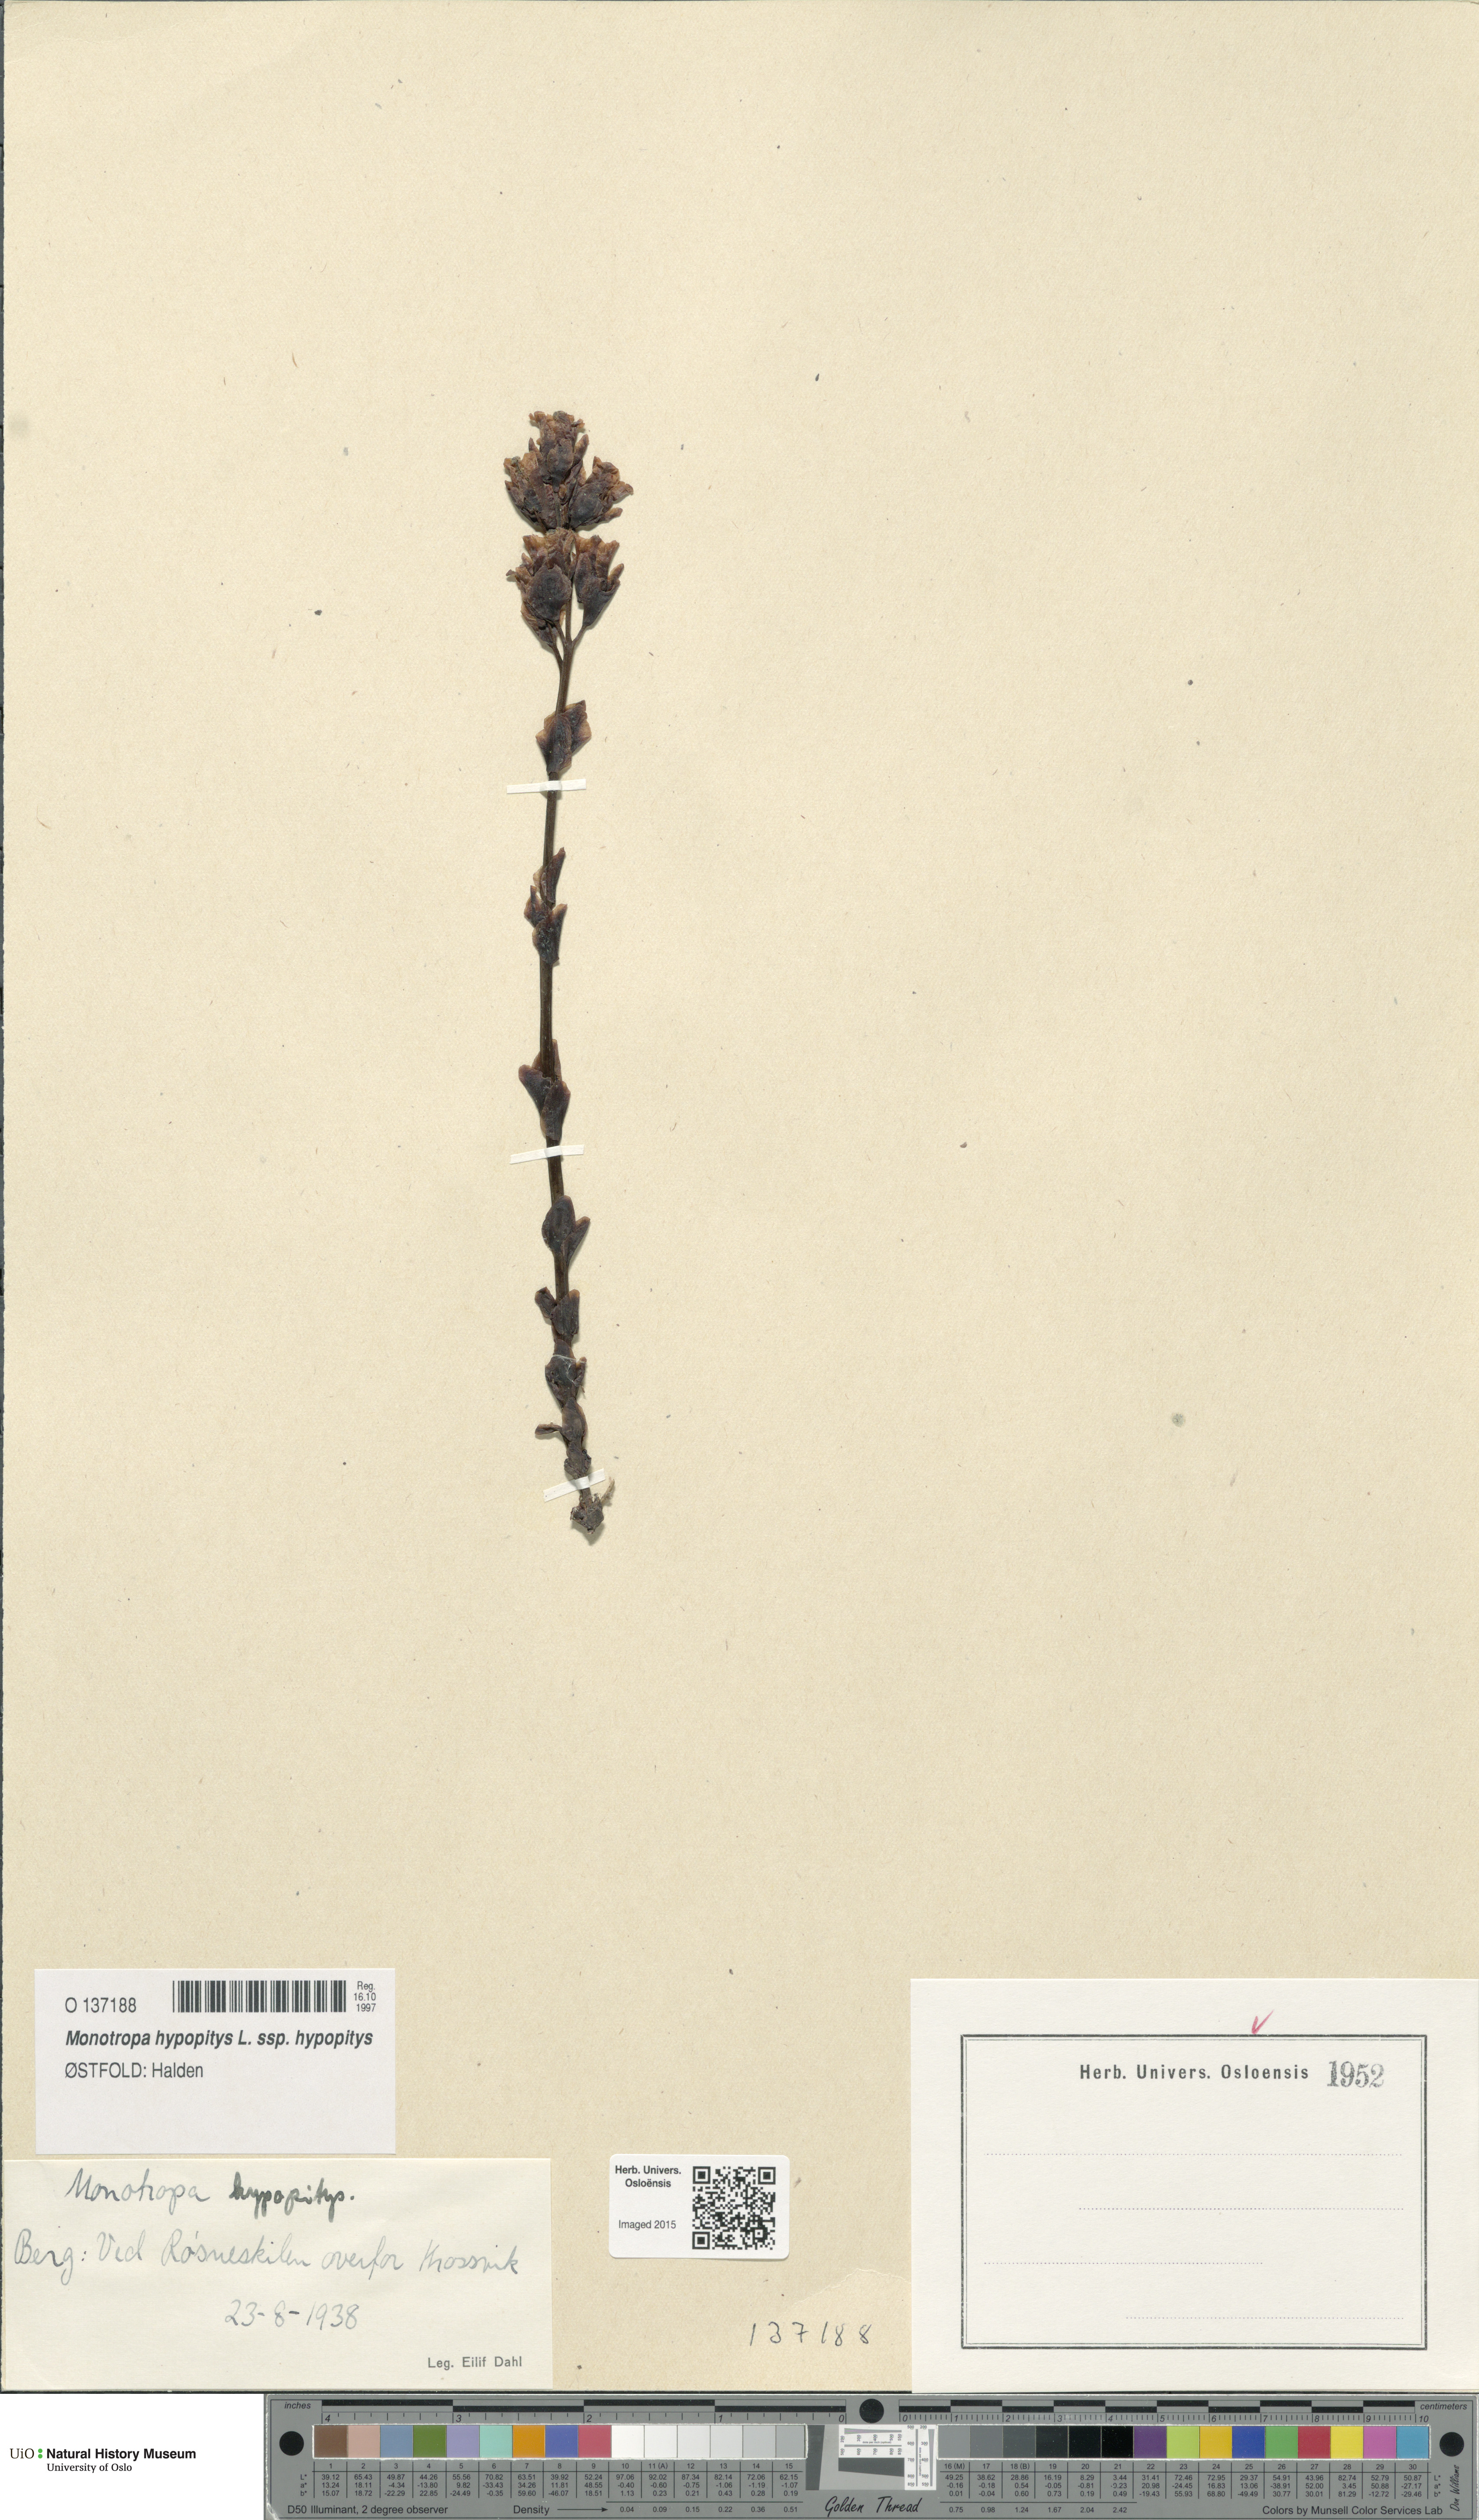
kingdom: Plantae
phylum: Tracheophyta
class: Magnoliopsida
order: Ericales
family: Ericaceae
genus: Hypopitys
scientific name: Hypopitys monotropa
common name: Yellow bird's-nest
